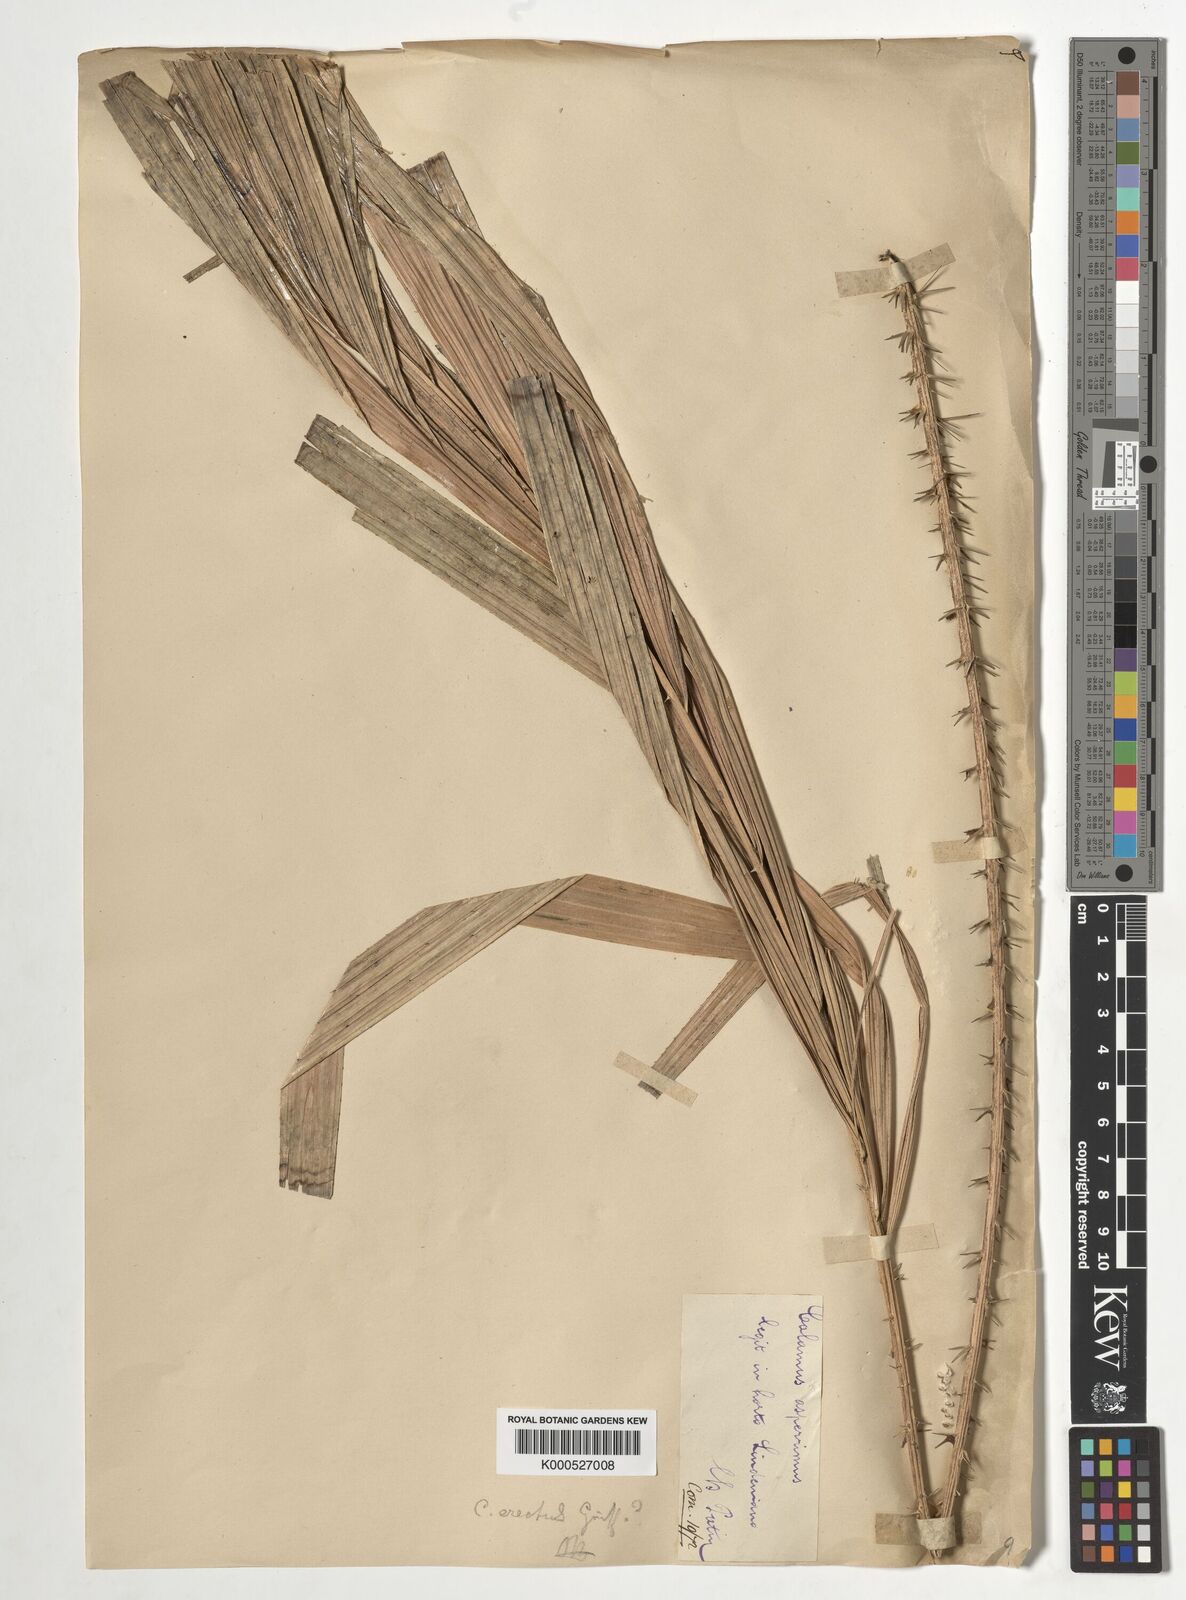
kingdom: Plantae
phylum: Tracheophyta
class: Liliopsida
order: Arecales
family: Arecaceae
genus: Calamus
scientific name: Calamus erectus
